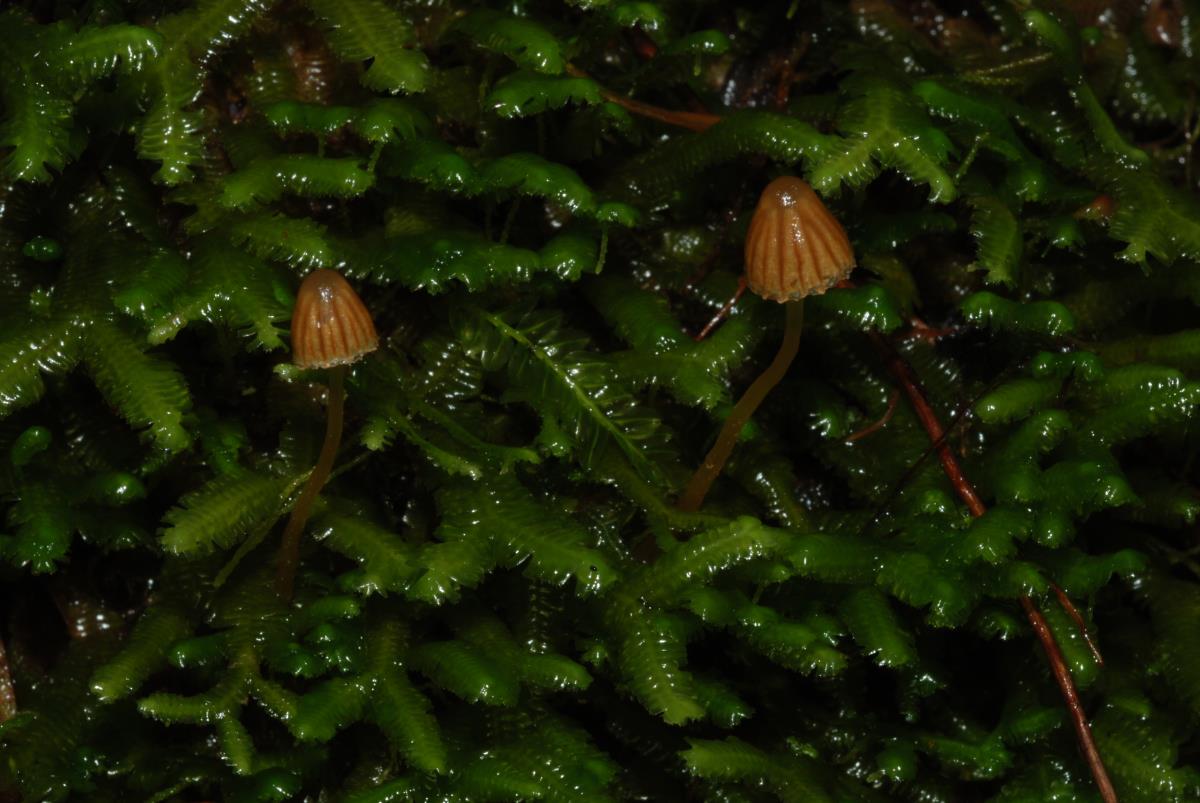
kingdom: Fungi
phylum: Basidiomycota
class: Agaricomycetes
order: Agaricales
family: Hymenogastraceae
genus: Galerina
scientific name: Galerina
